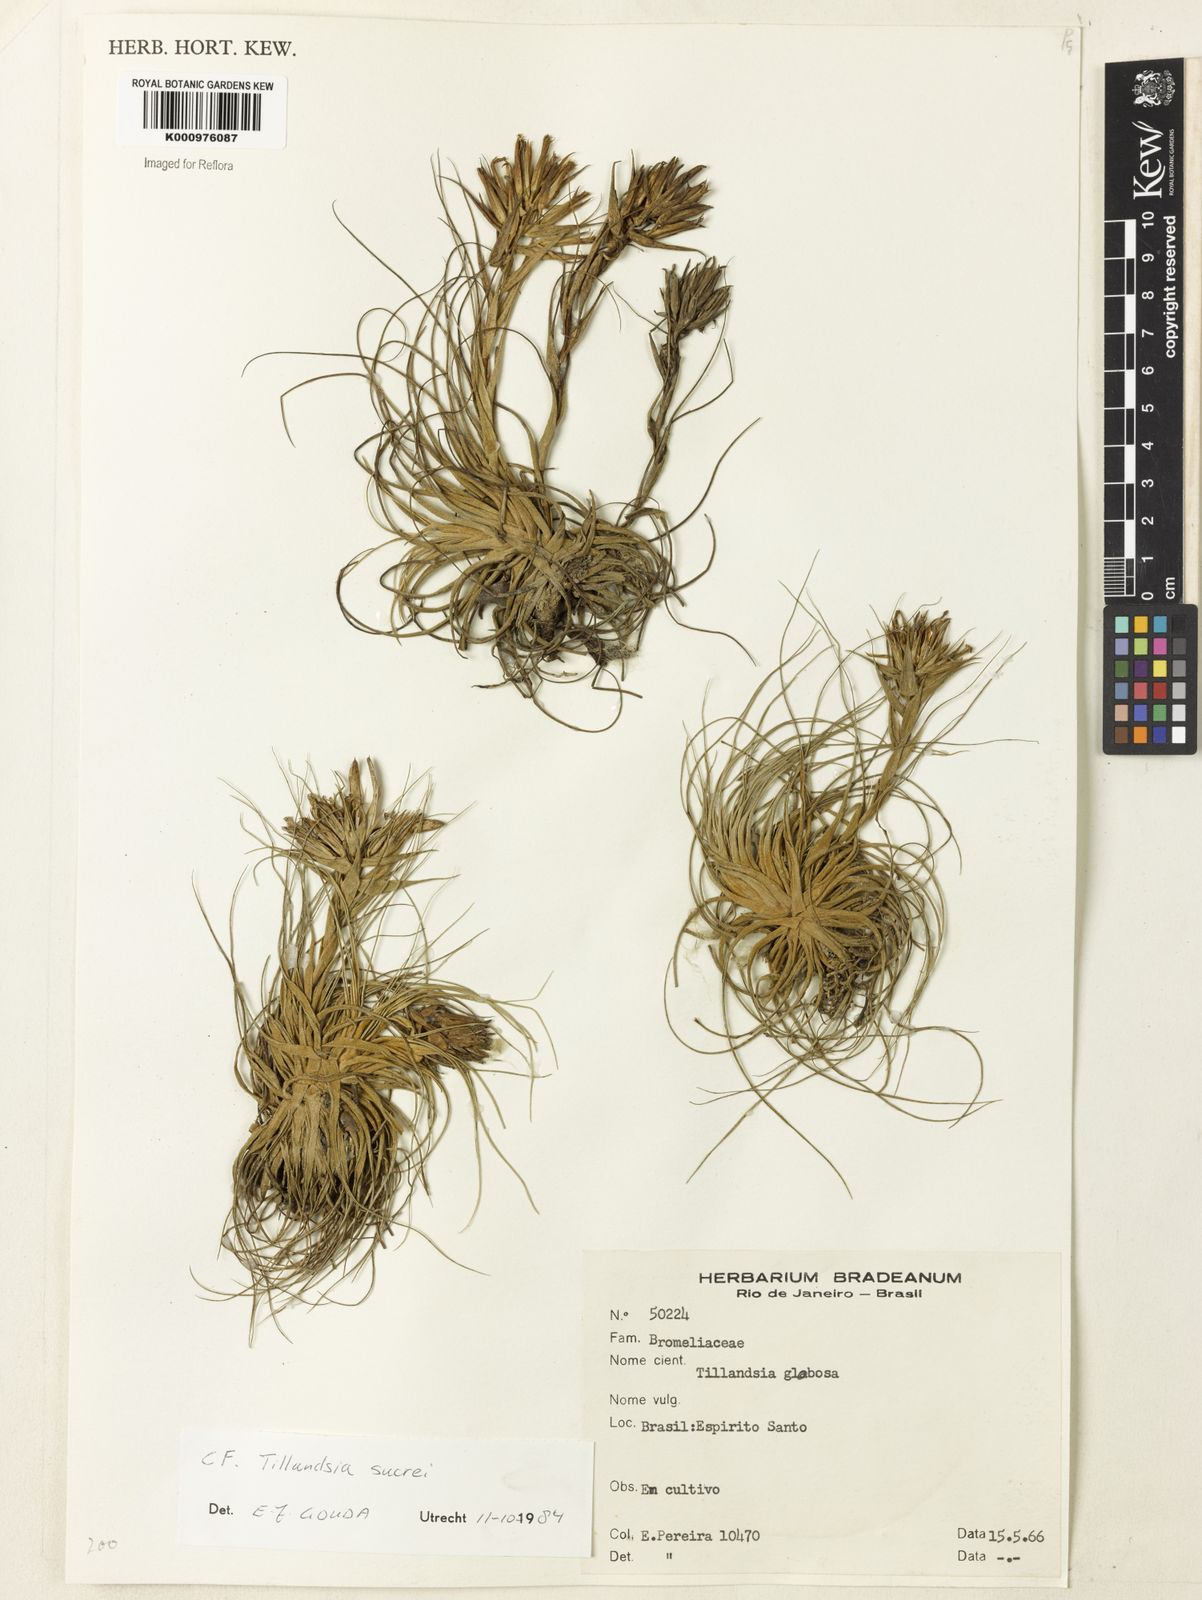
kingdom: Plantae
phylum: Tracheophyta
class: Liliopsida
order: Poales
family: Bromeliaceae
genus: Tillandsia
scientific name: Tillandsia globosa
